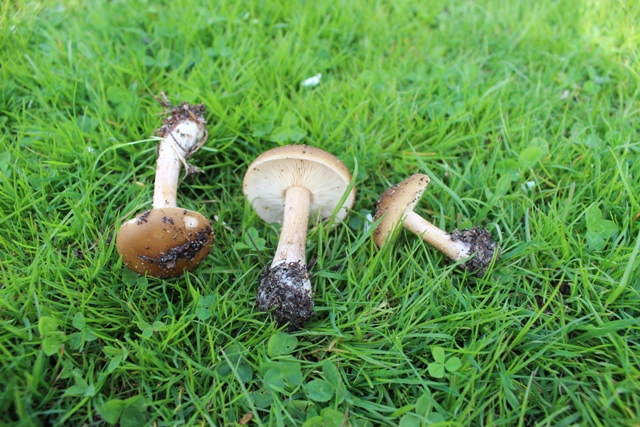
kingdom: Fungi
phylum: Basidiomycota
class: Agaricomycetes
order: Agaricales
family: Tricholomataceae
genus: Melanoleuca
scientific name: Melanoleuca cognata
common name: gyldengrå munkehat
